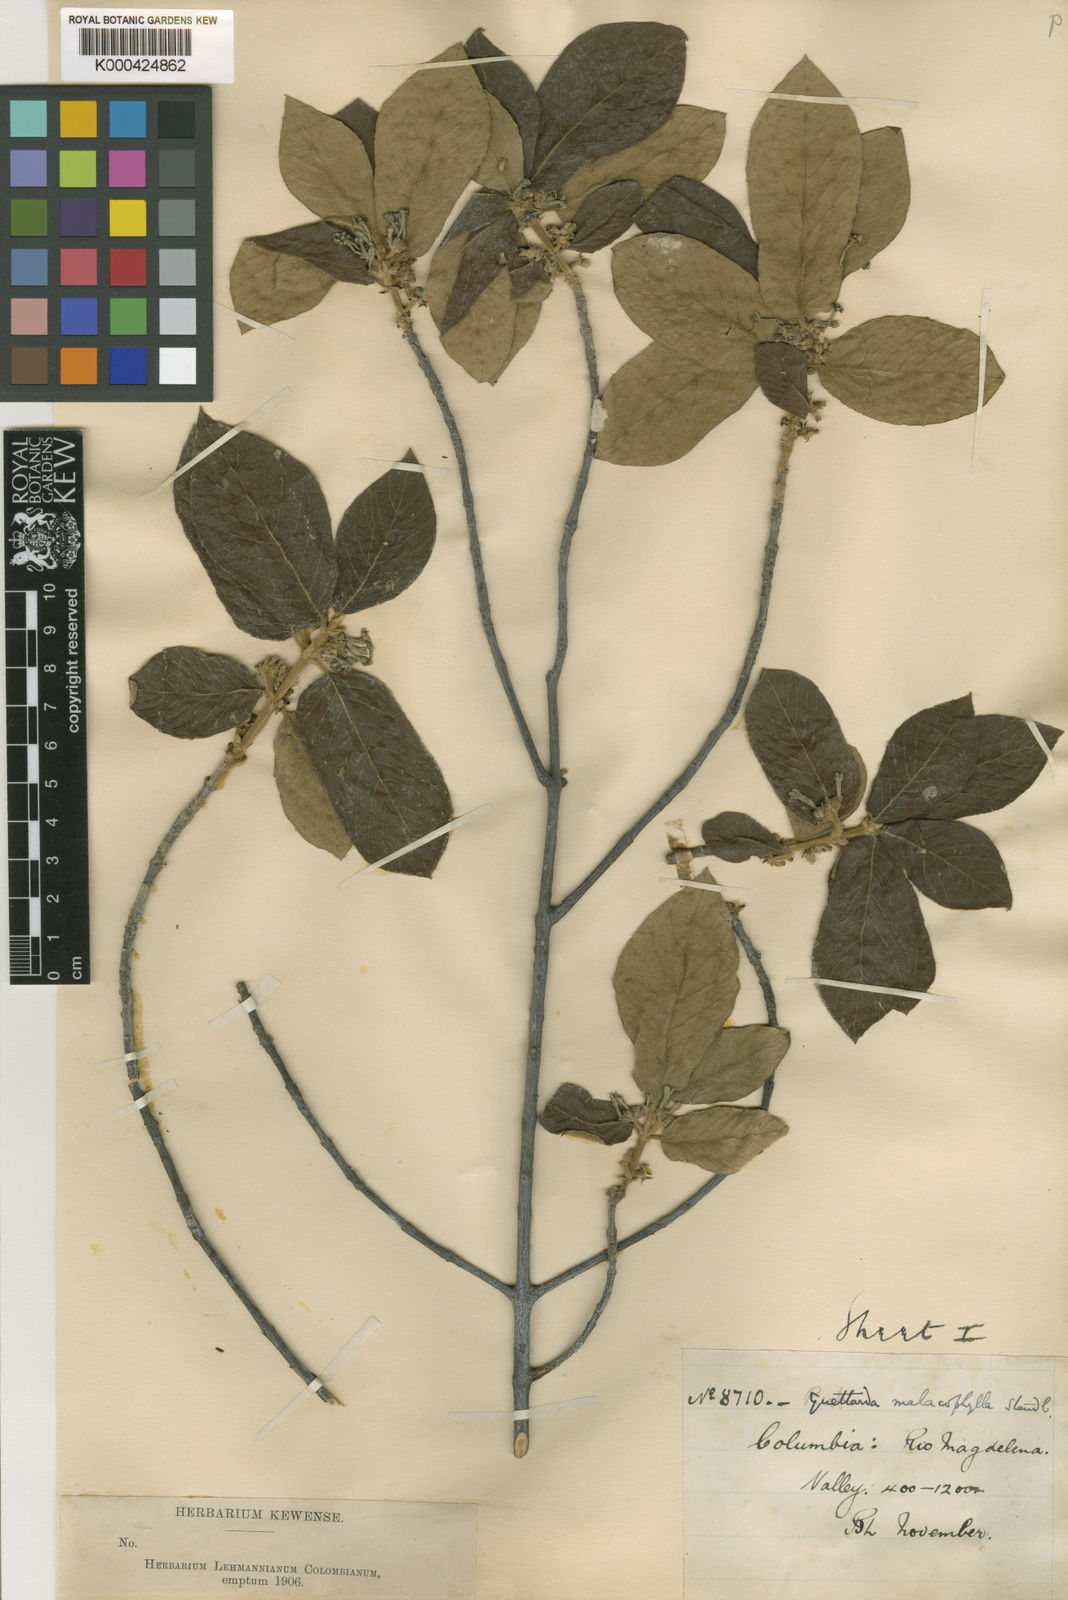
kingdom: Plantae
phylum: Tracheophyta
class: Magnoliopsida
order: Gentianales
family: Rubiaceae
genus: Guettarda
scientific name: Guettarda malacophylla
